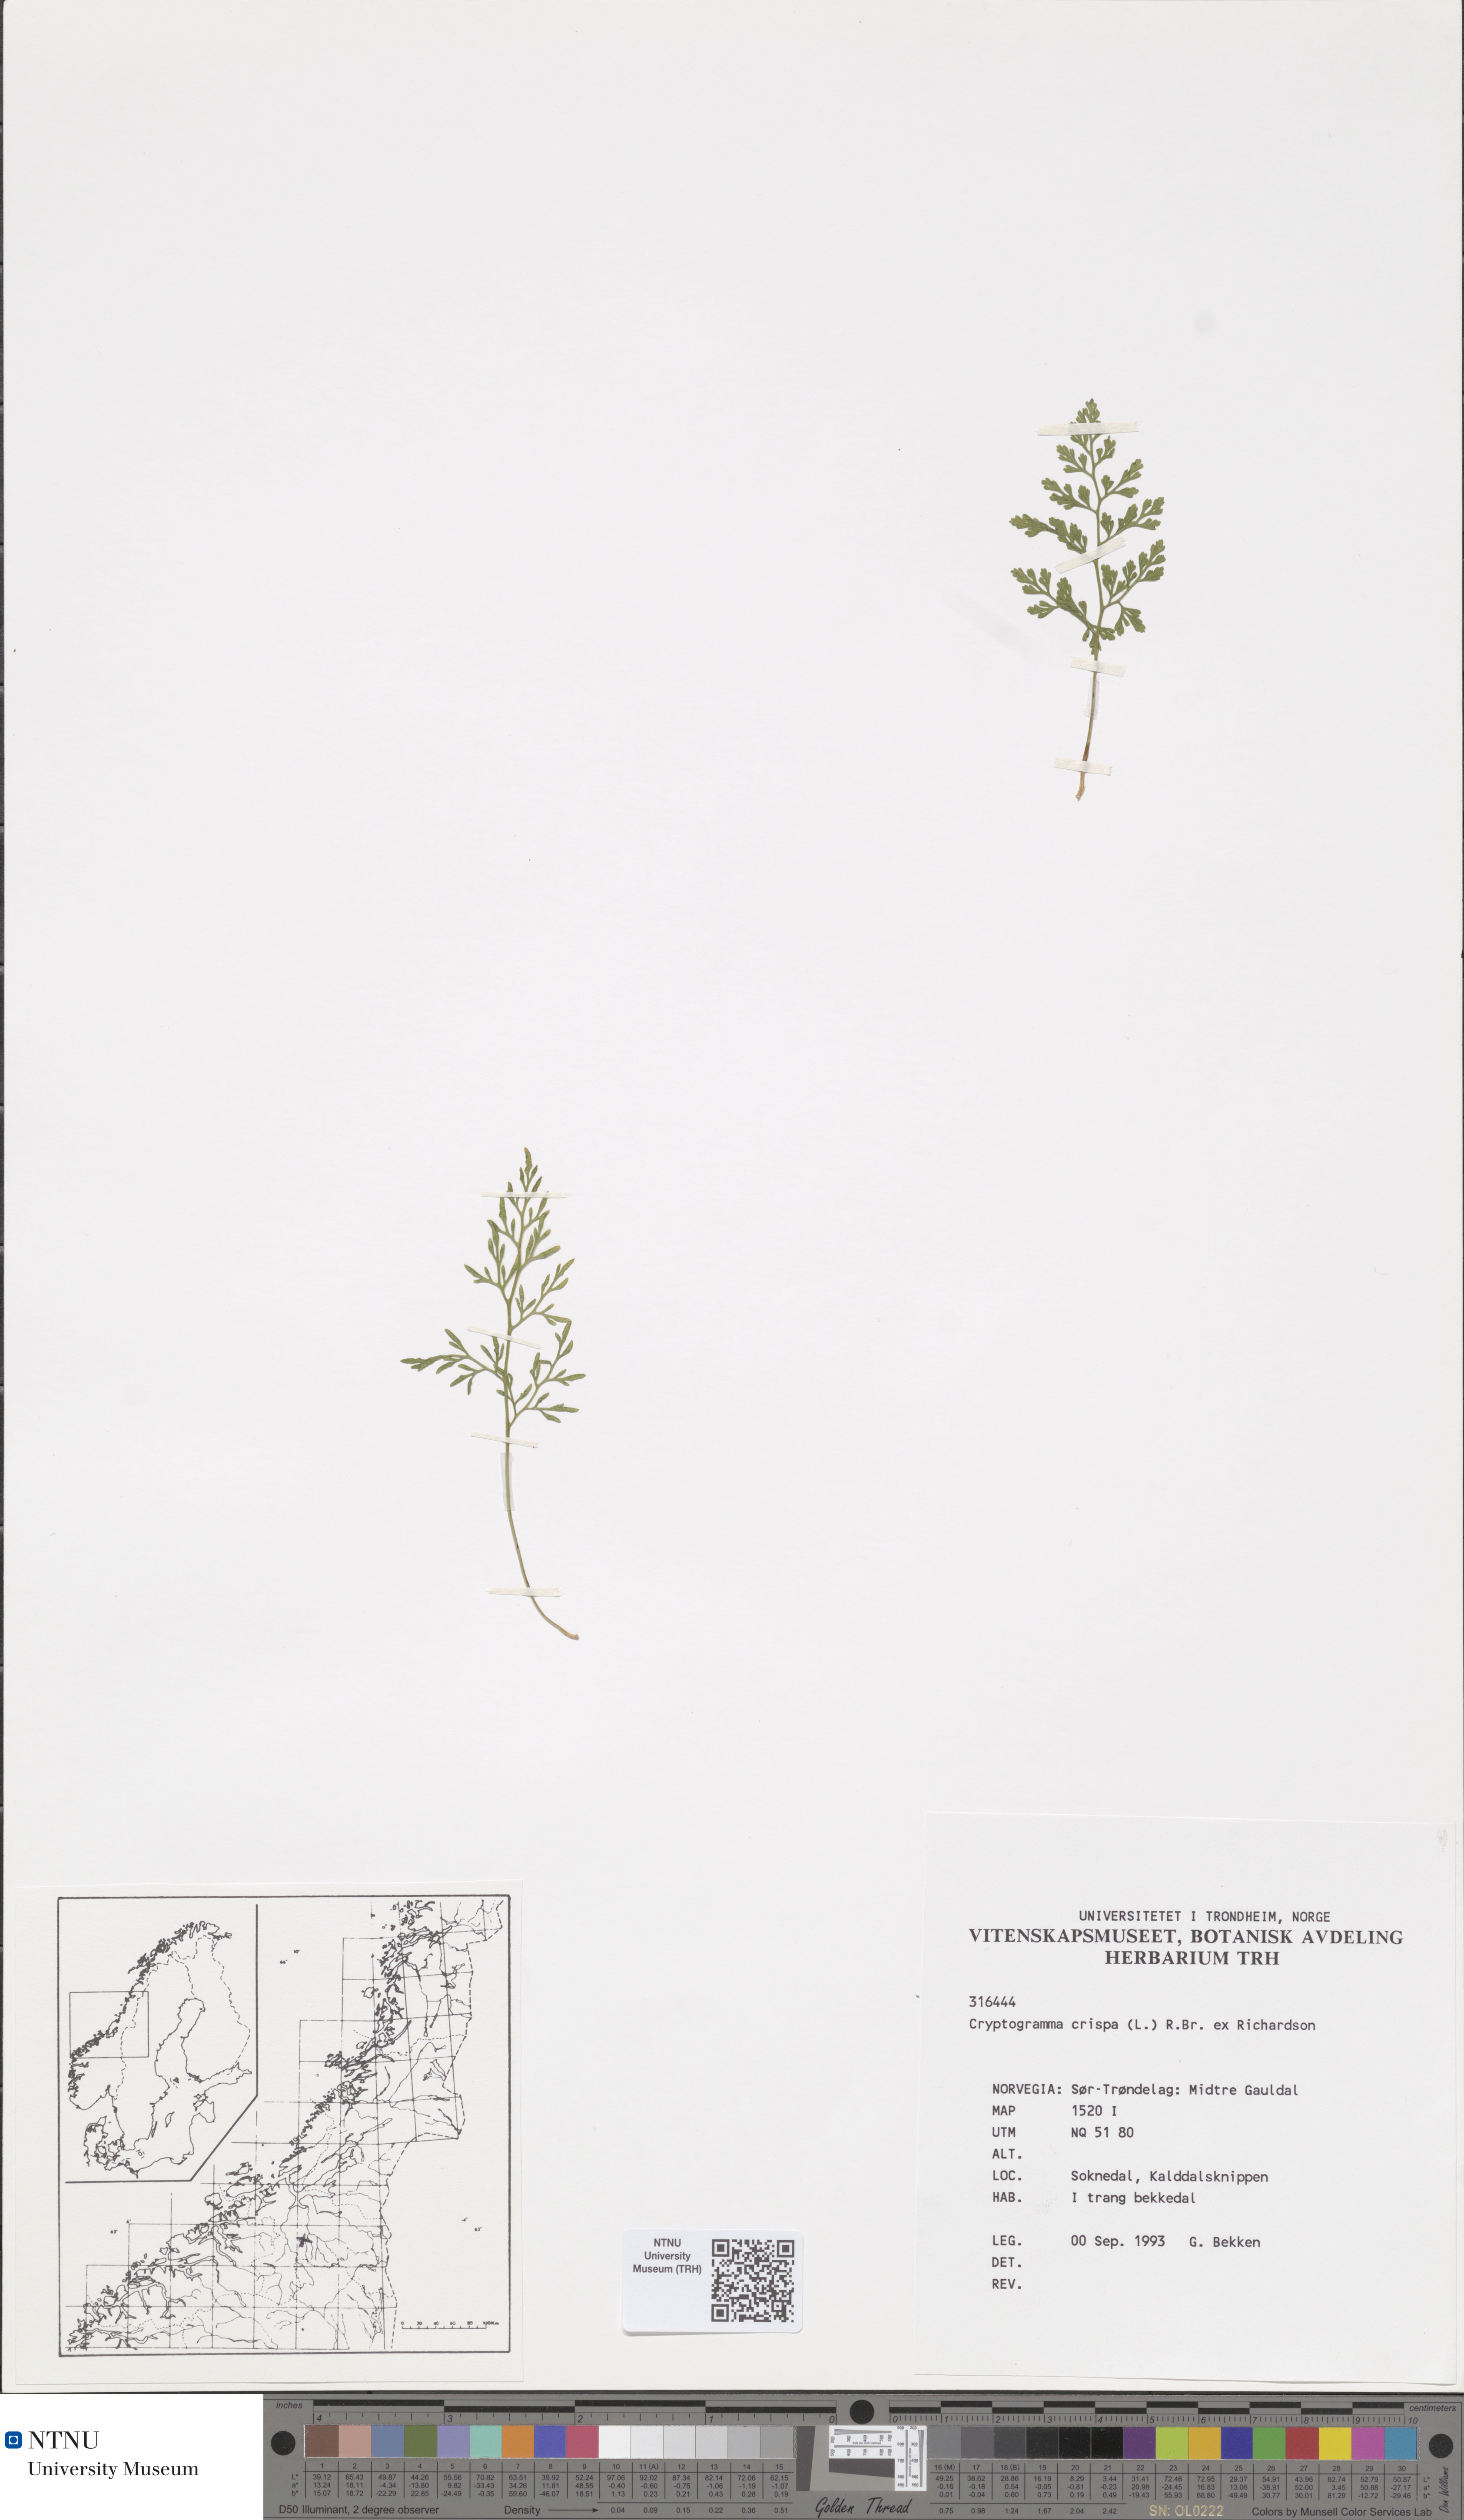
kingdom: Plantae
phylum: Tracheophyta
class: Polypodiopsida
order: Polypodiales
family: Pteridaceae
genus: Cryptogramma
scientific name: Cryptogramma crispa
